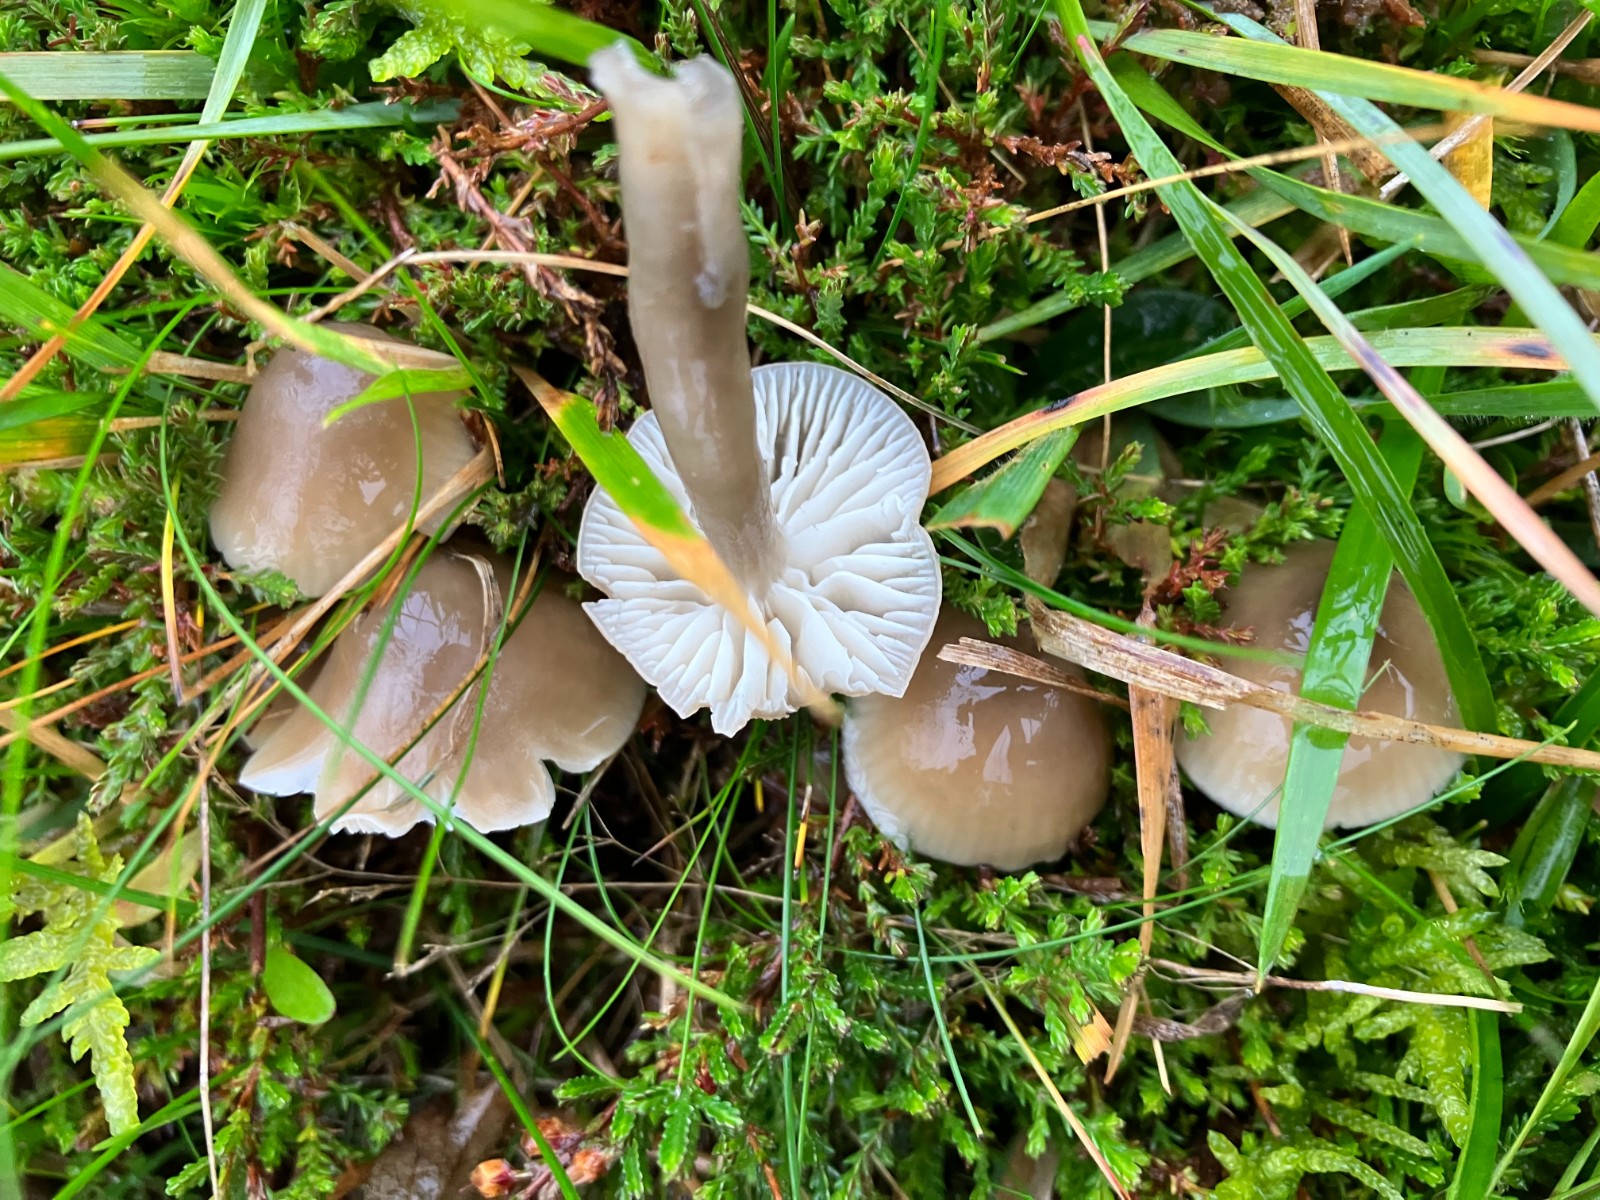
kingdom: Fungi
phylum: Basidiomycota
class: Agaricomycetes
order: Agaricales
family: Hygrophoraceae
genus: Gliophorus
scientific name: Gliophorus irrigatus
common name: slimet vokshat
